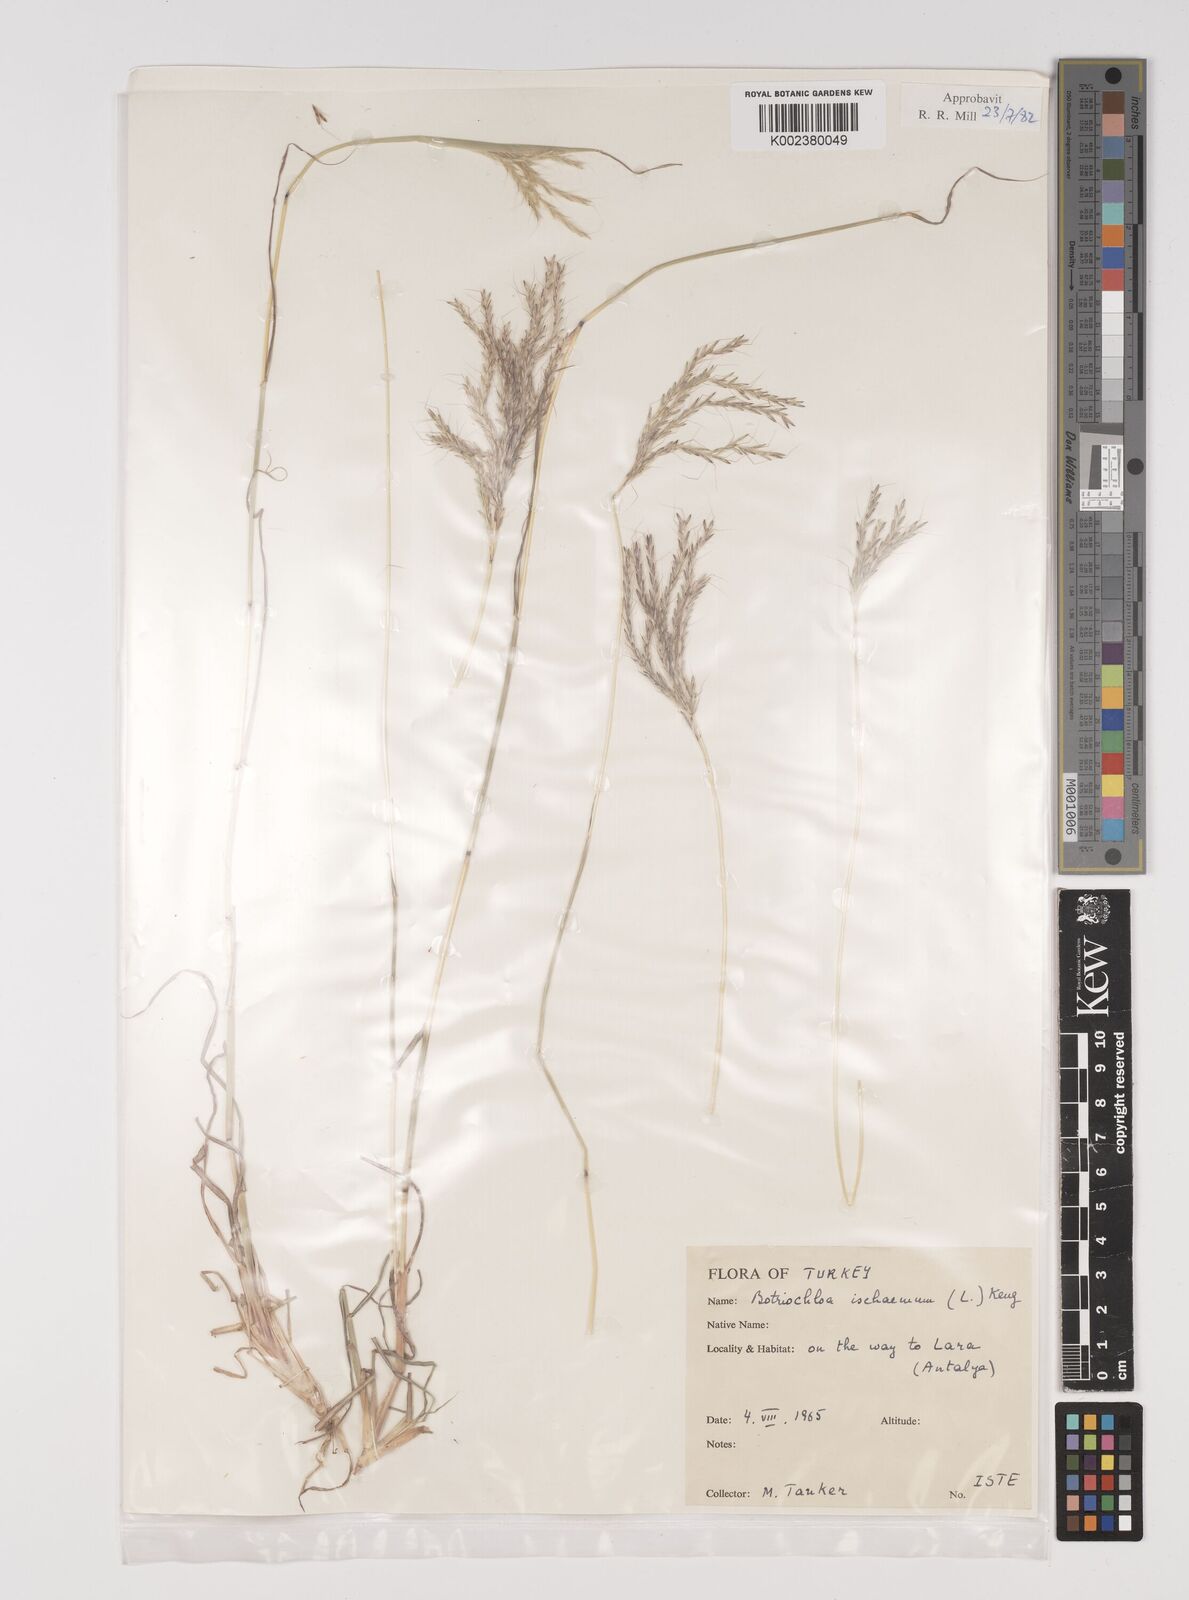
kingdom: Plantae
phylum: Tracheophyta
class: Liliopsida
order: Poales
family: Poaceae
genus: Bothriochloa
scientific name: Bothriochloa ischaemum
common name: Yellow bluestem
